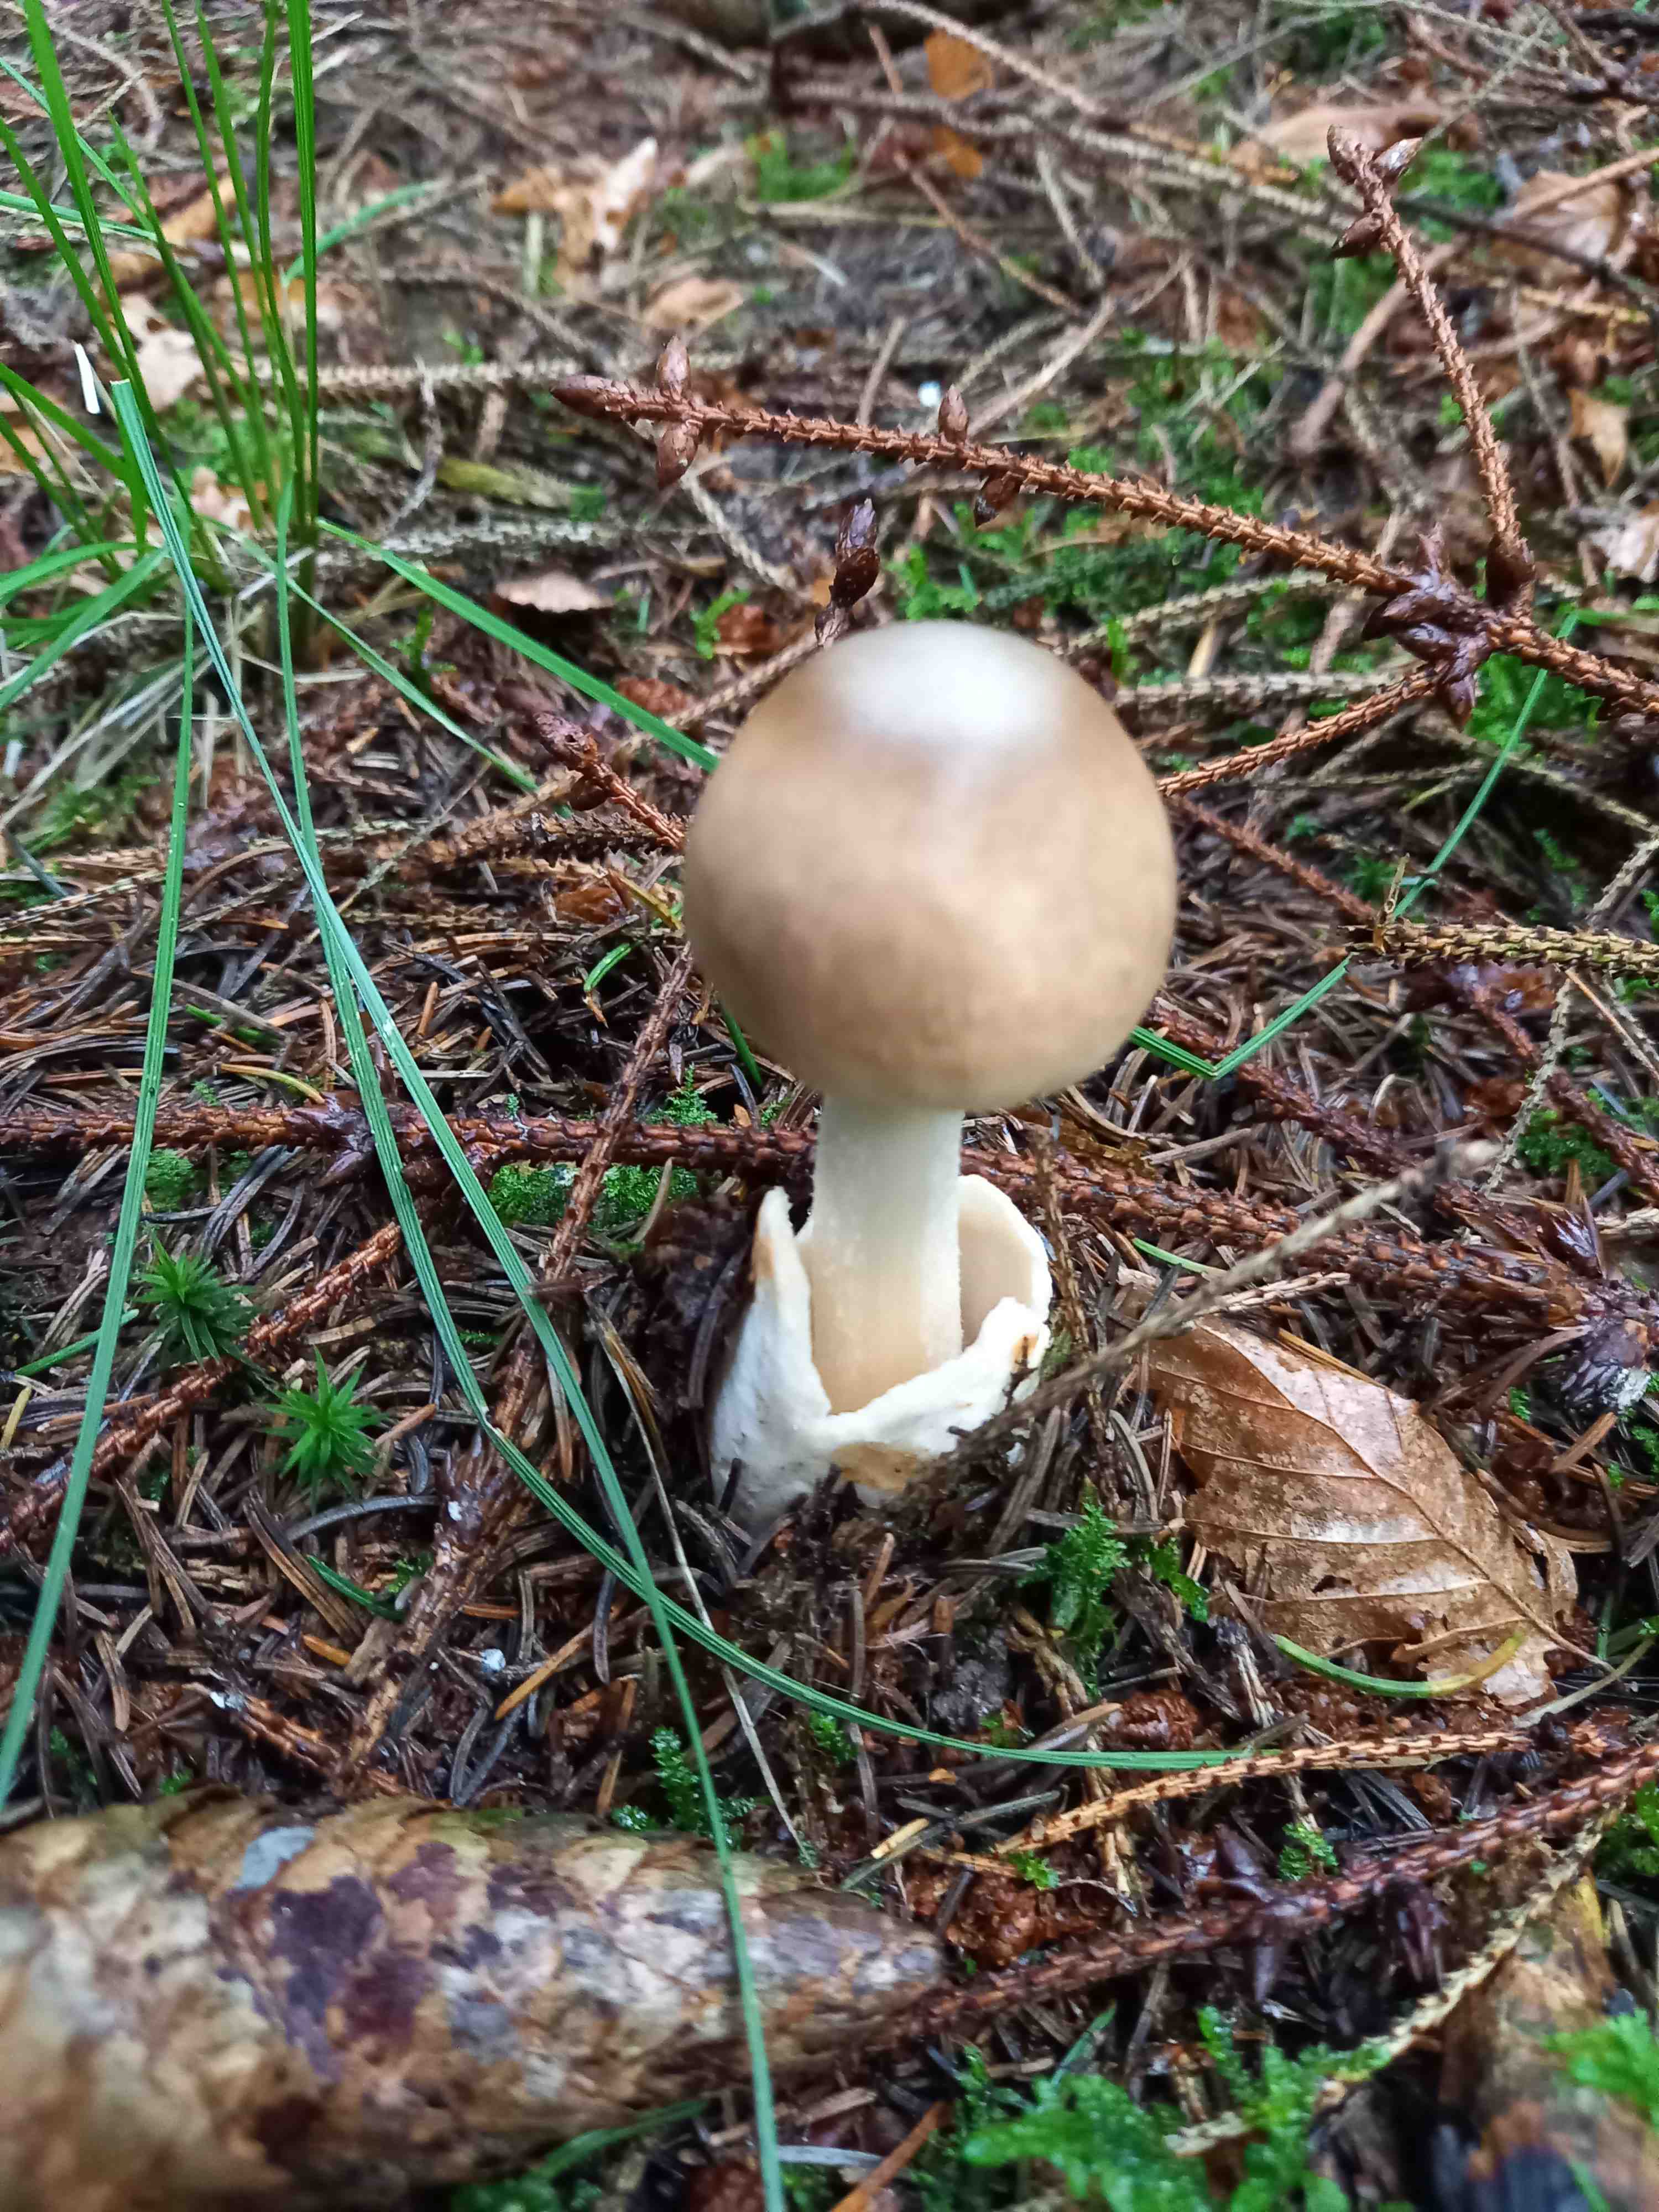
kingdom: Fungi
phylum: Basidiomycota
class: Agaricomycetes
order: Agaricales
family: Amanitaceae
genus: Amanita
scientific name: Amanita fulva
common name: brun kam-fluesvamp
